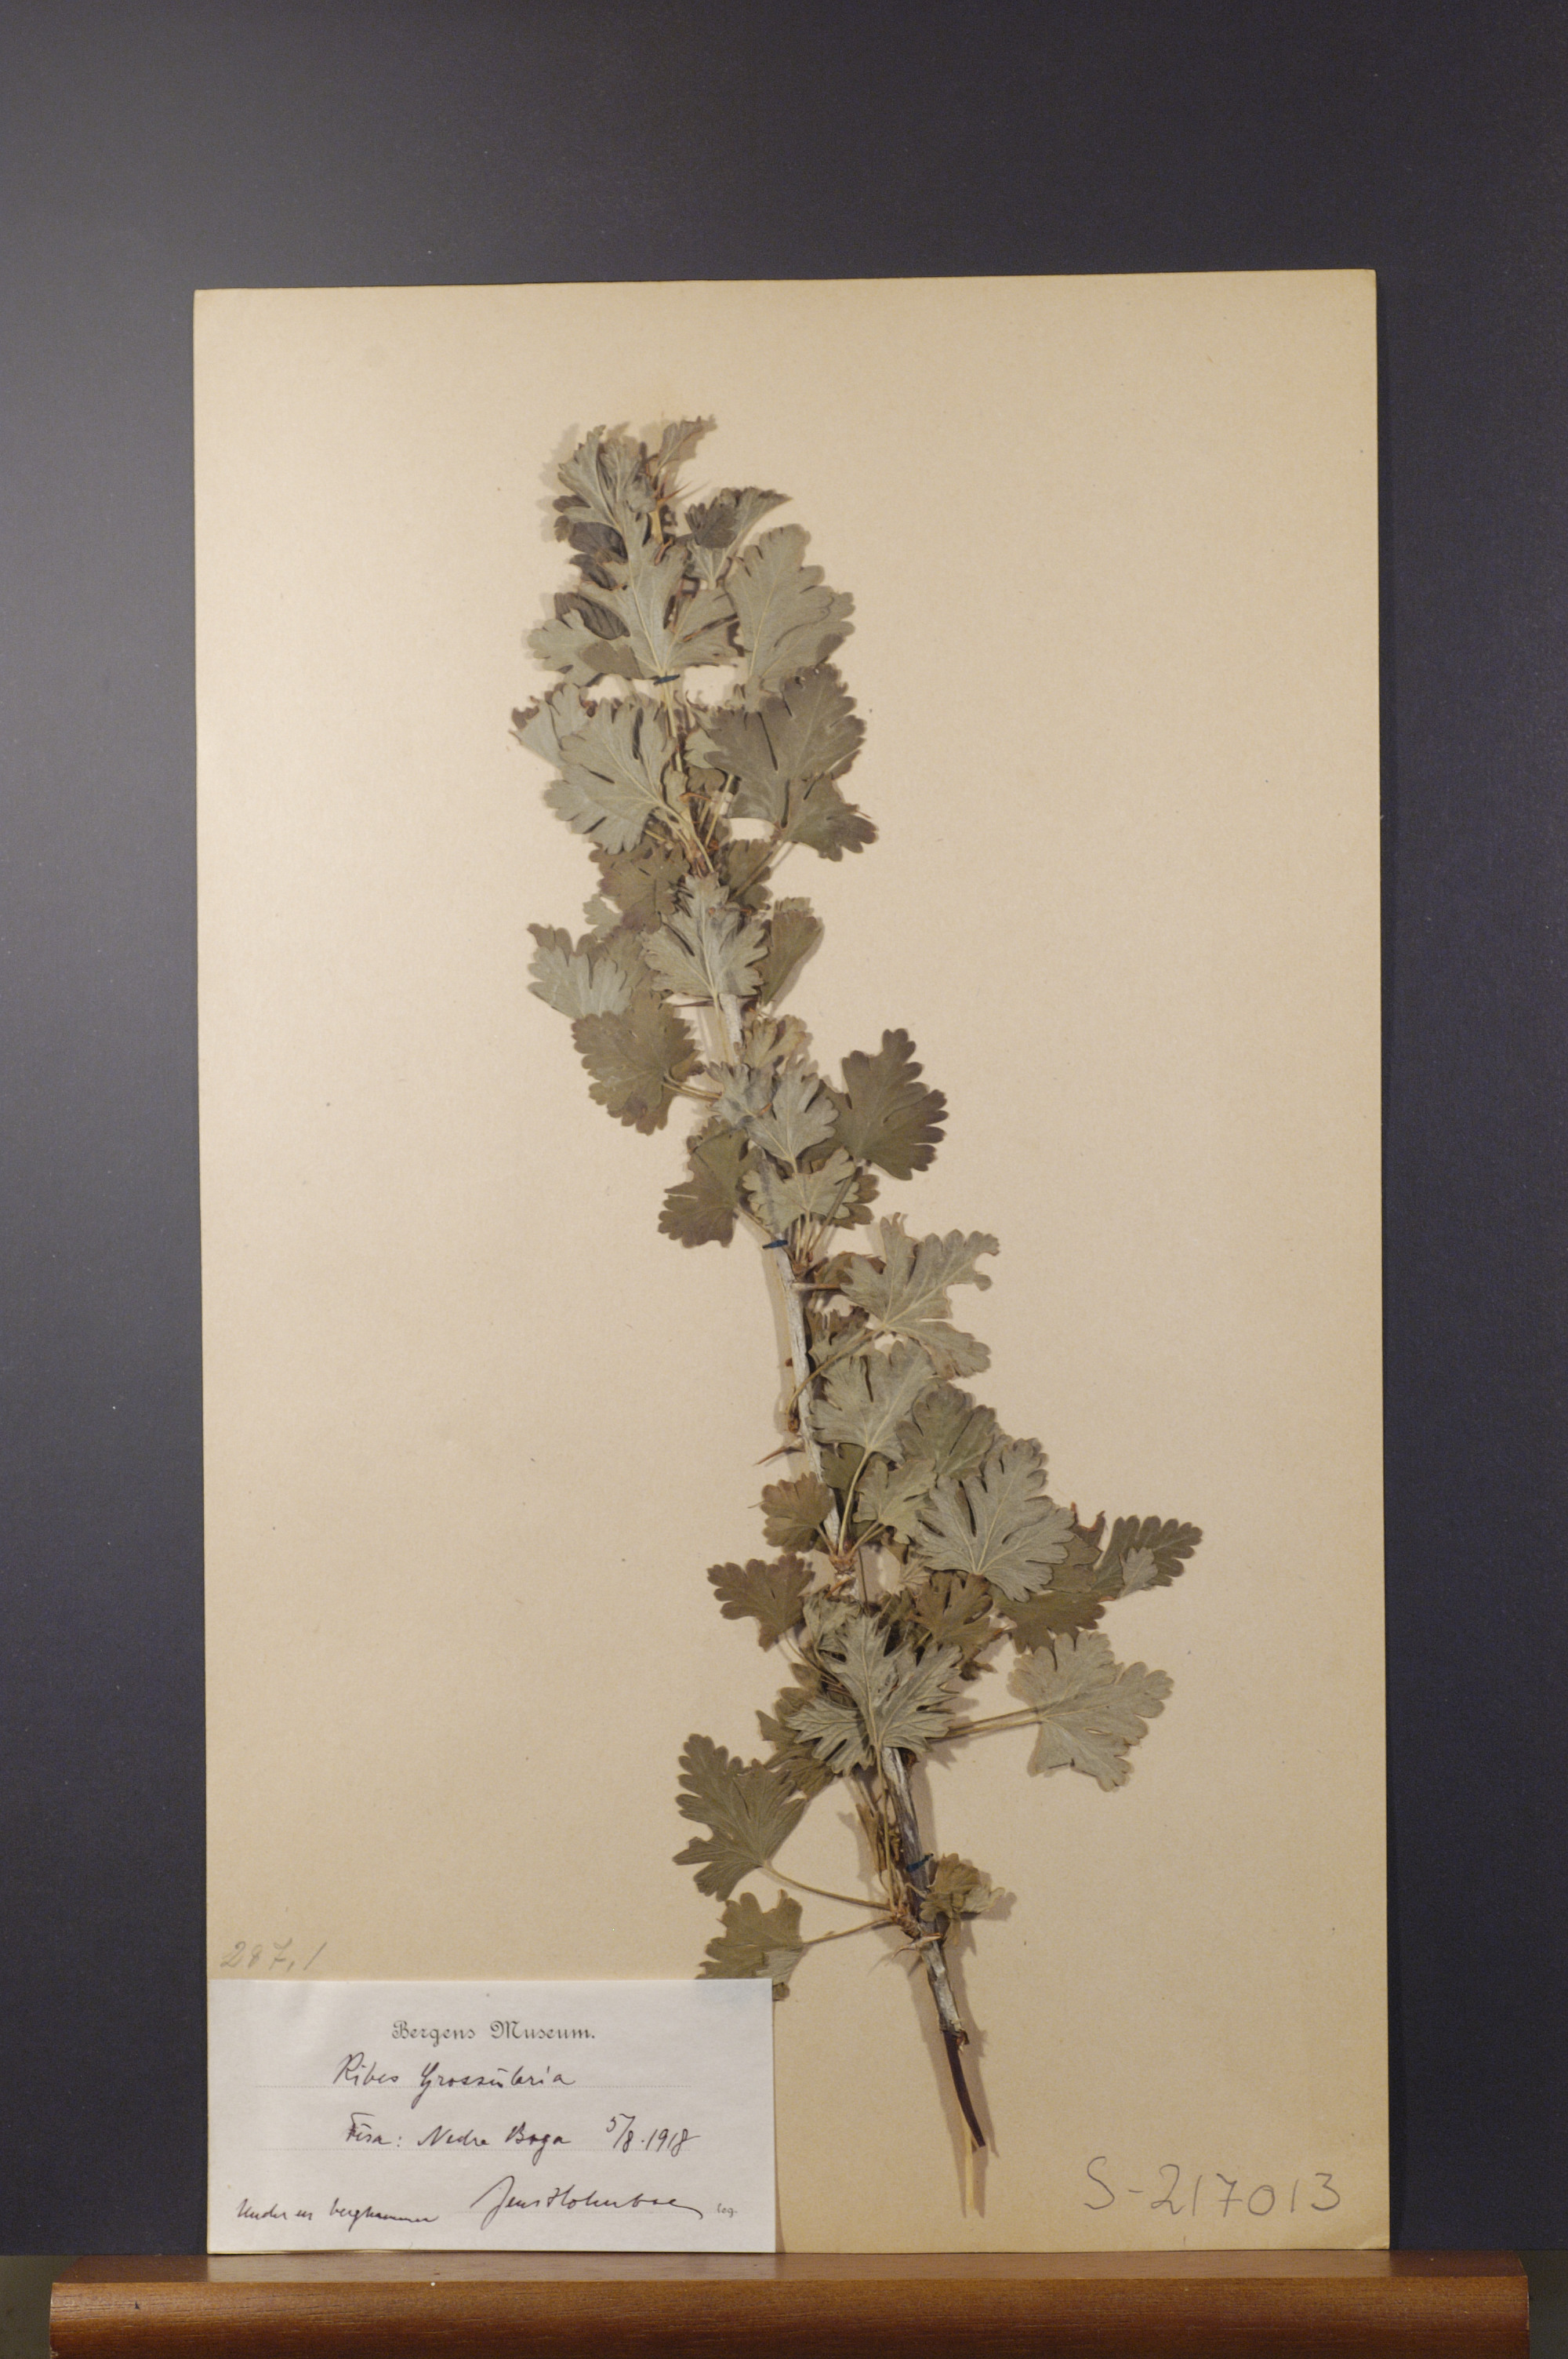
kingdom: Plantae
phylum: Tracheophyta
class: Magnoliopsida
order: Saxifragales
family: Grossulariaceae
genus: Ribes
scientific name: Ribes uva-crispa
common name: Gooseberry
